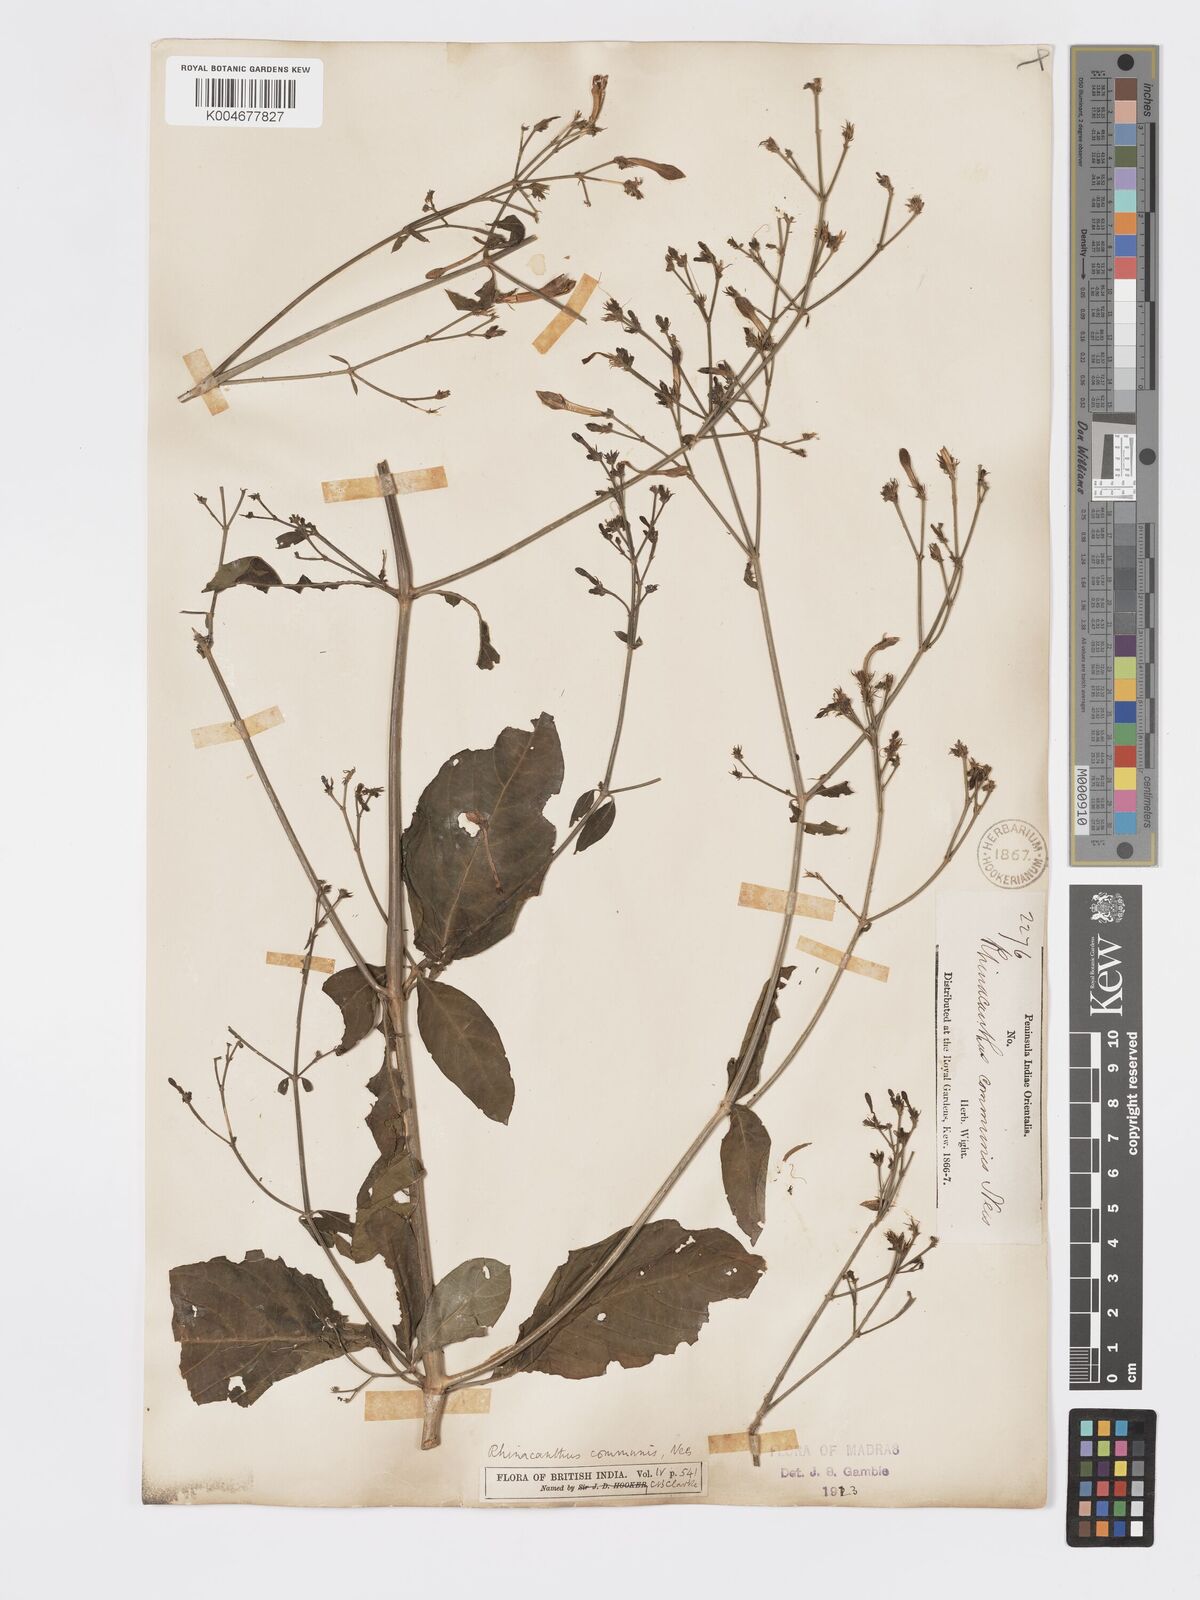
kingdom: Plantae
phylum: Tracheophyta
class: Magnoliopsida
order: Lamiales
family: Acanthaceae
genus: Rhinacanthus
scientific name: Rhinacanthus nasutus
